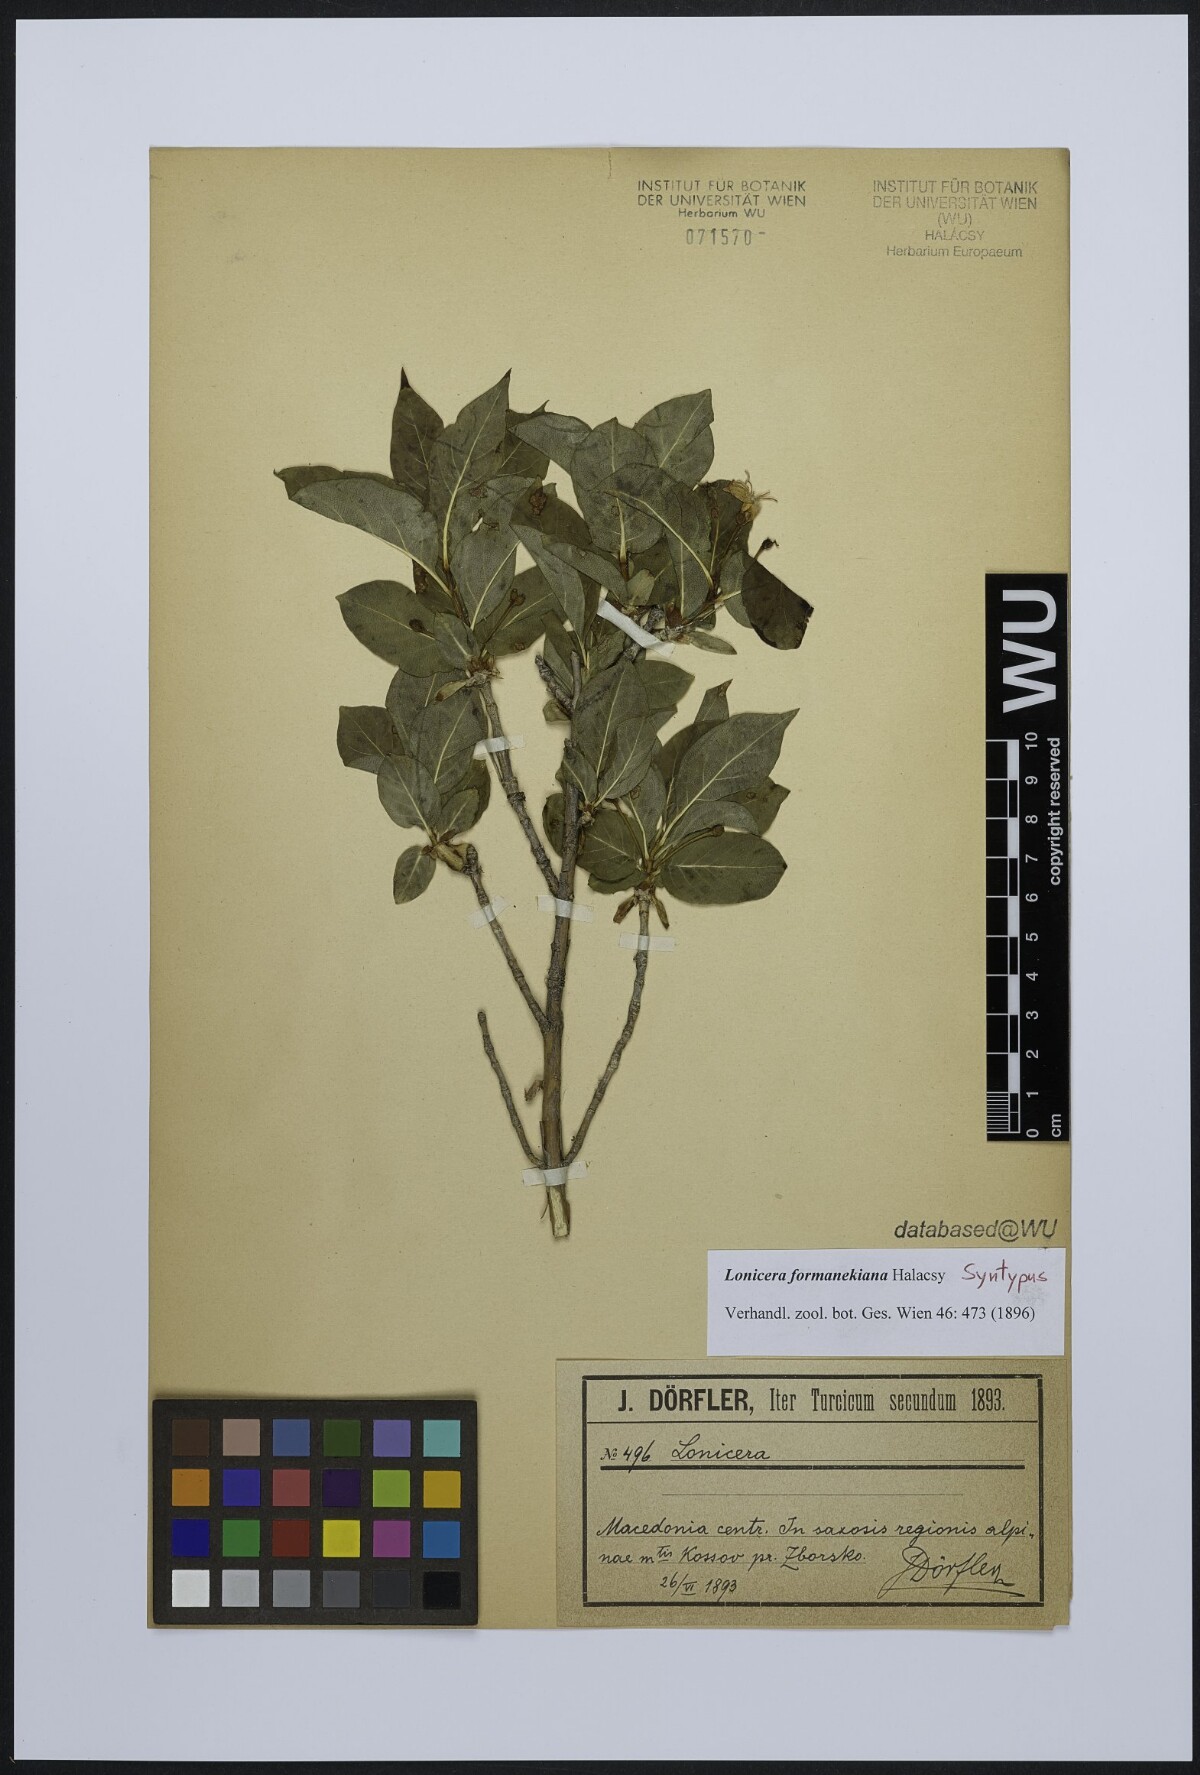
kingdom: Plantae
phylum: Tracheophyta
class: Magnoliopsida
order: Dipsacales
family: Caprifoliaceae
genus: Lonicera
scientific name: Lonicera alpigena
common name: Alpine honeysuckle
